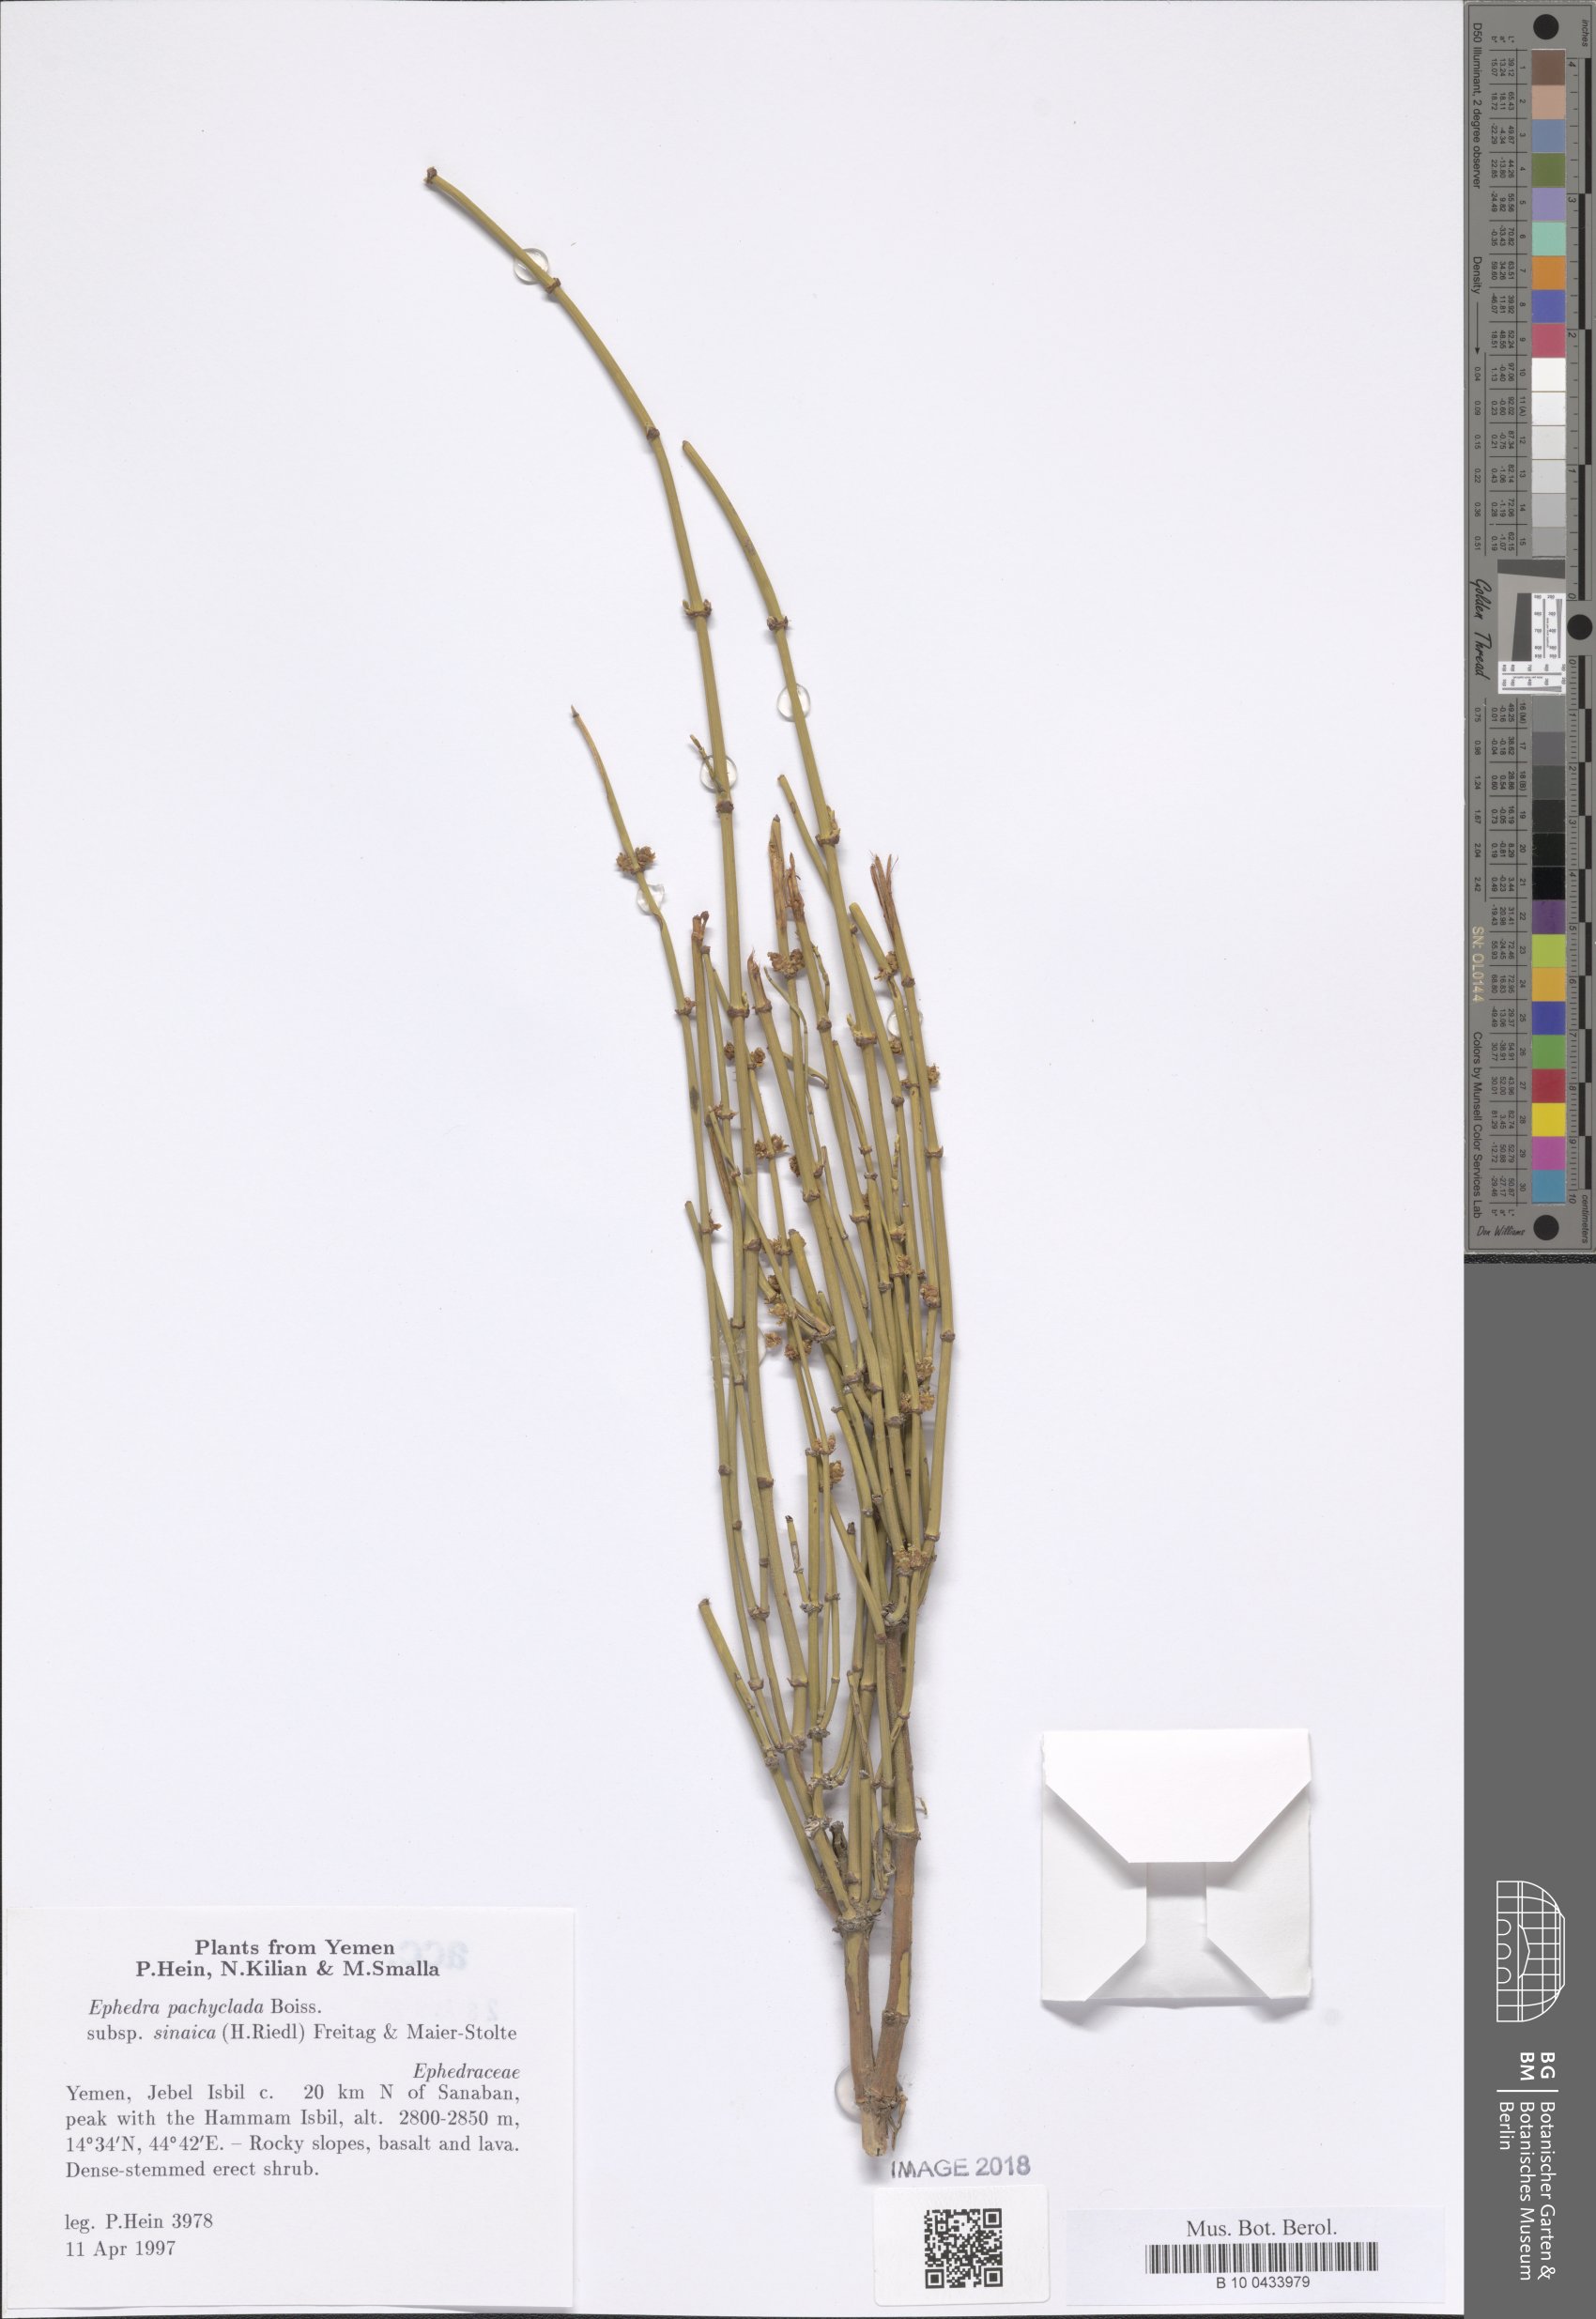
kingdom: Plantae
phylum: Tracheophyta
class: Gnetopsida
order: Ephedrales
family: Ephedraceae
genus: Ephedra
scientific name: Ephedra pachyclada
